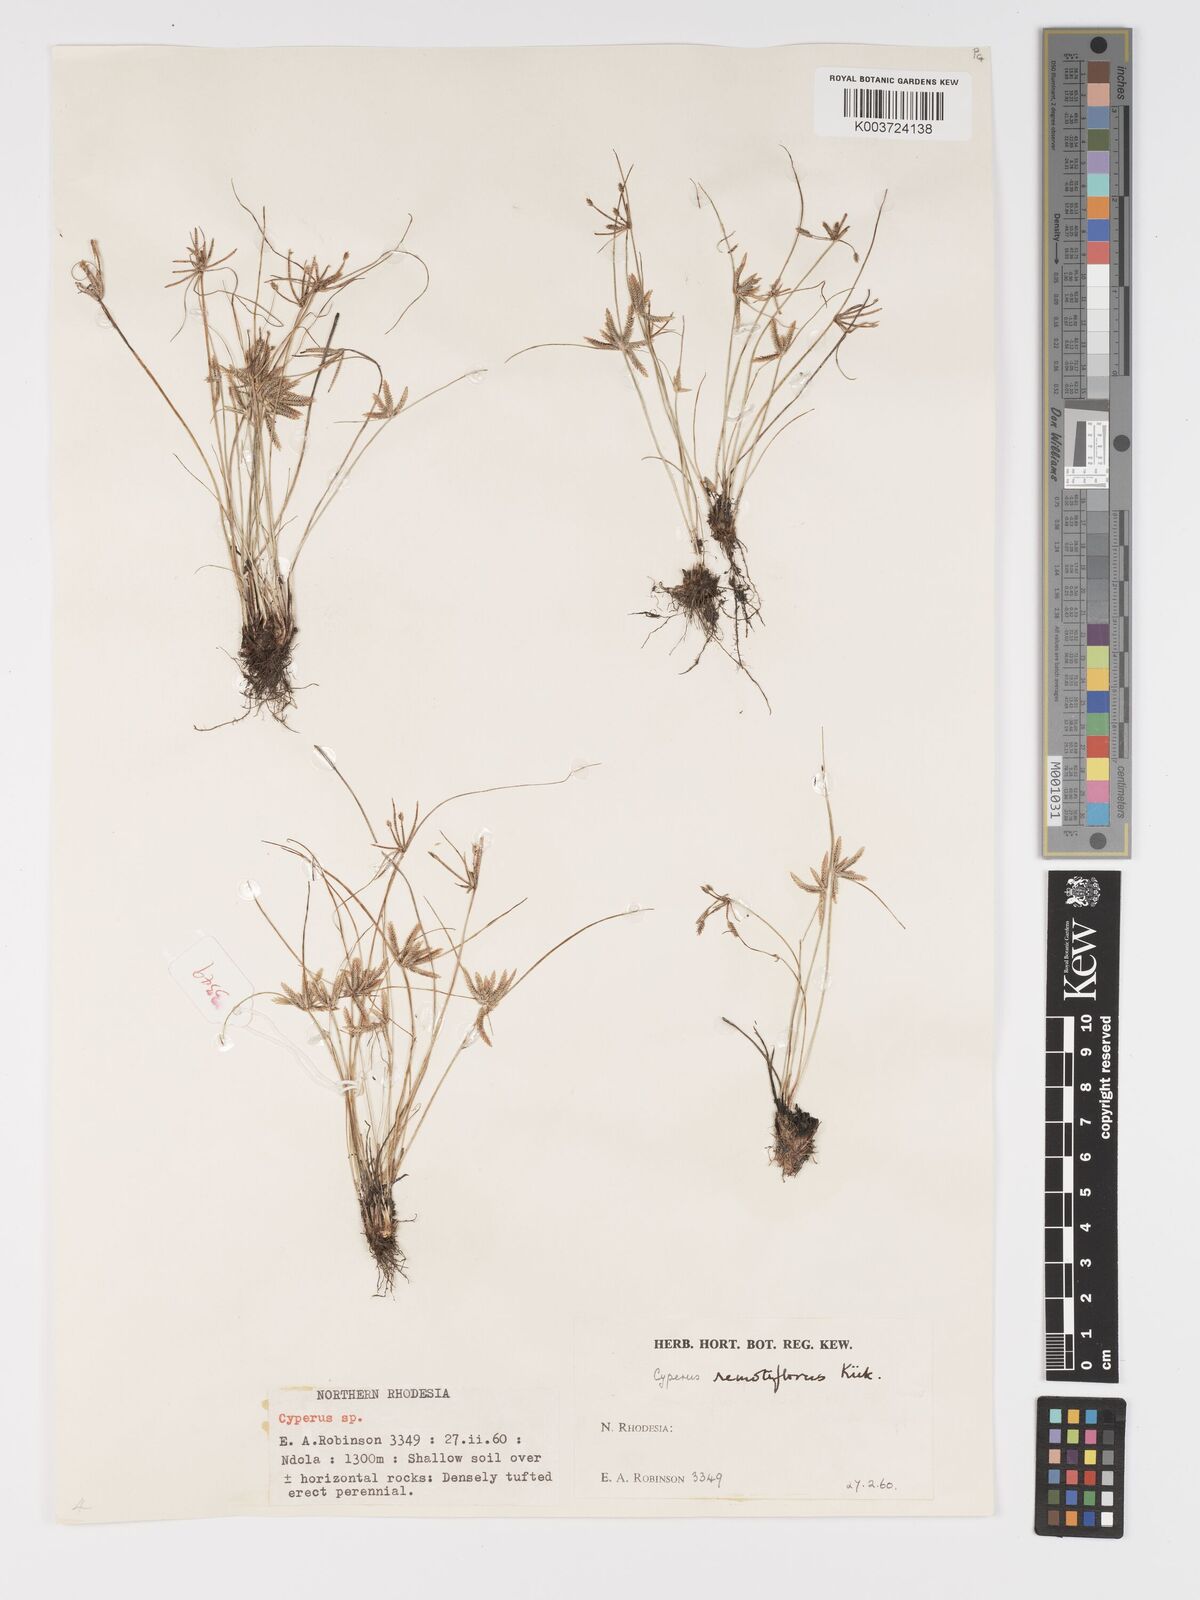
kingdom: Plantae
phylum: Tracheophyta
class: Liliopsida
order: Poales
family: Cyperaceae
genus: Cyperus
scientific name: Cyperus remotiflorus
